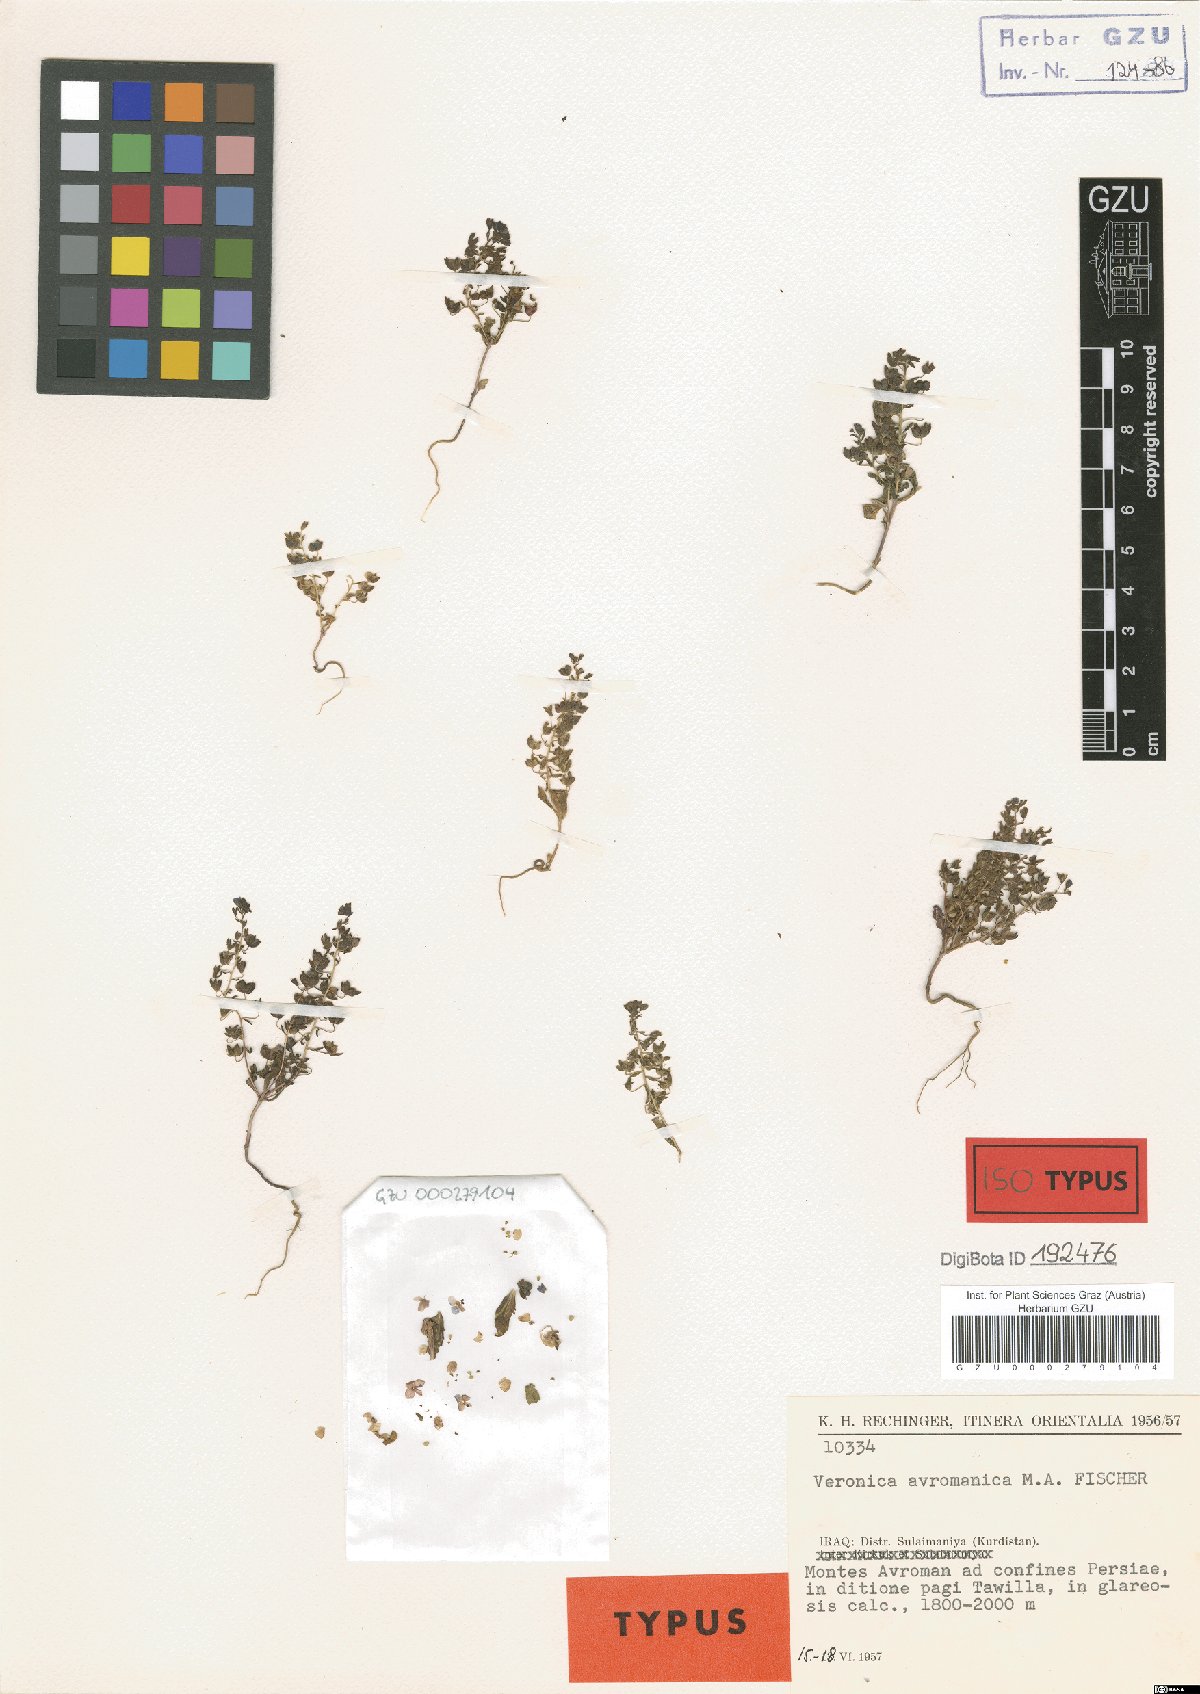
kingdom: Plantae
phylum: Tracheophyta
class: Magnoliopsida
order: Lamiales
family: Plantaginaceae
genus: Veronica
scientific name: Veronica avromanica
